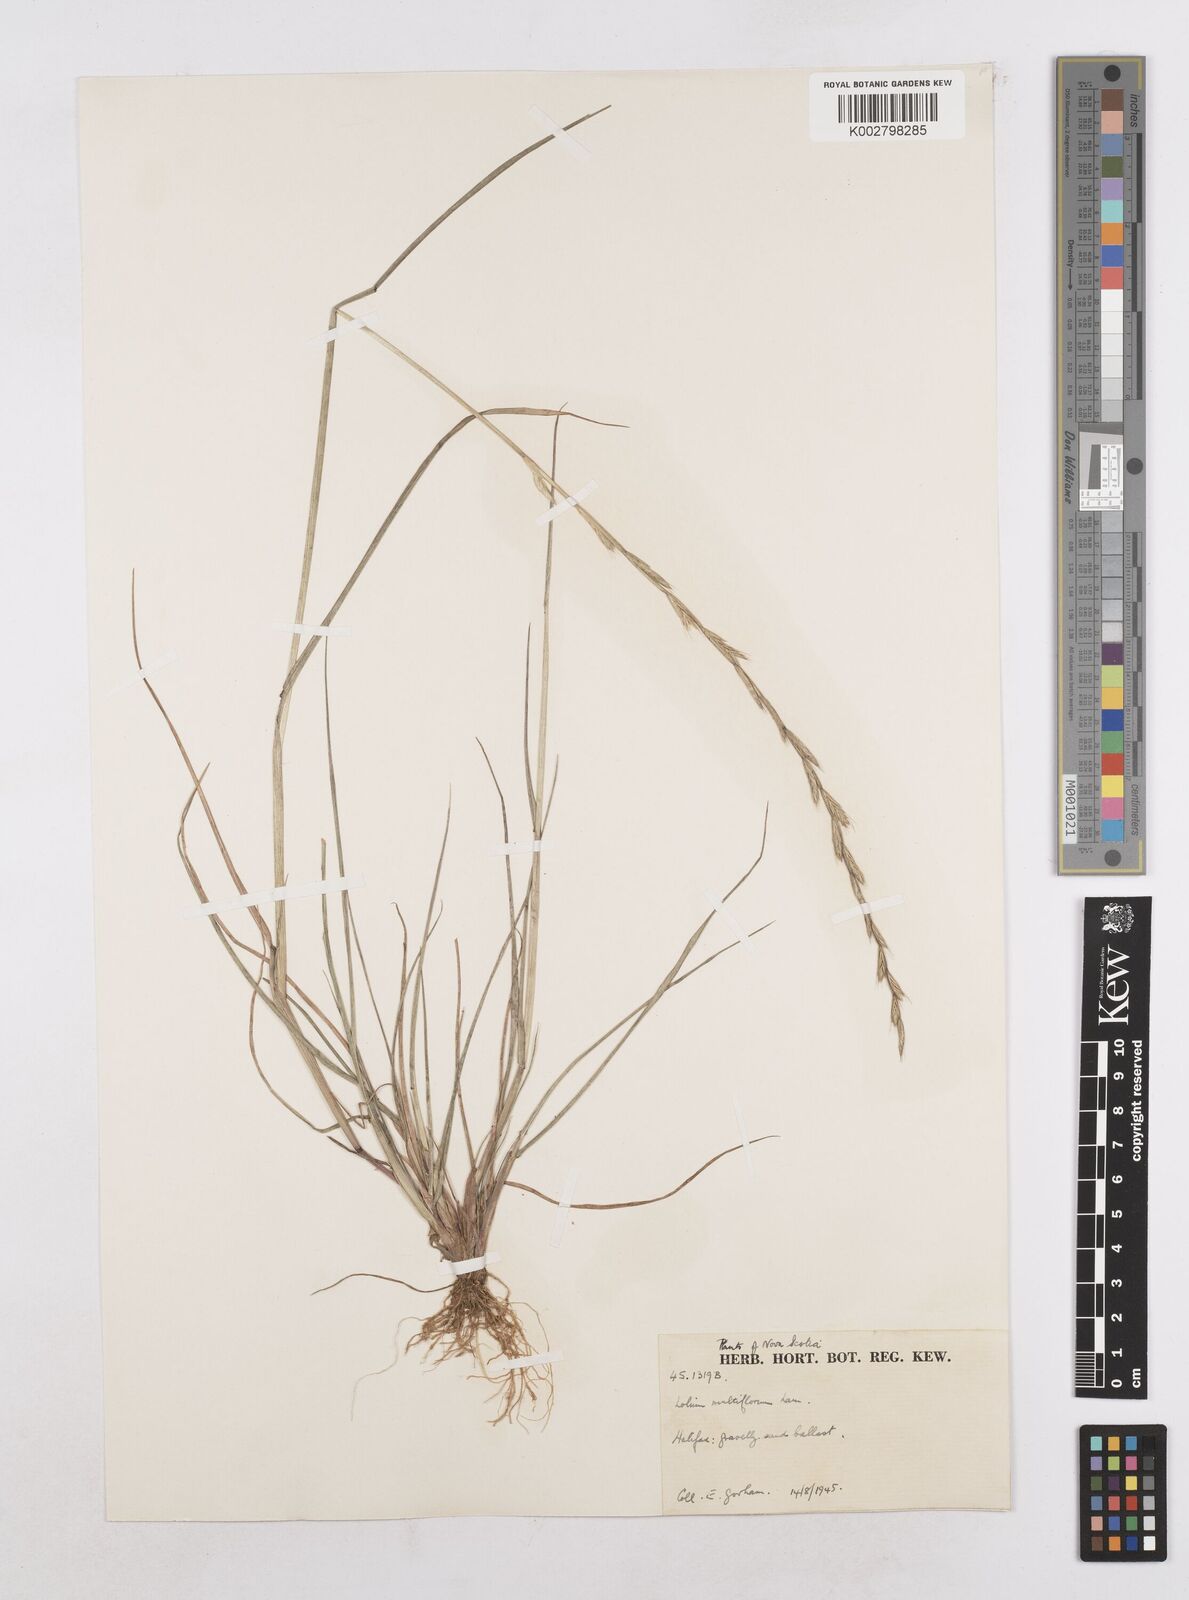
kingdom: Plantae
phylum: Tracheophyta
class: Liliopsida
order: Poales
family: Poaceae
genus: Lolium
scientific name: Lolium multiflorum
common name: Annual ryegrass
